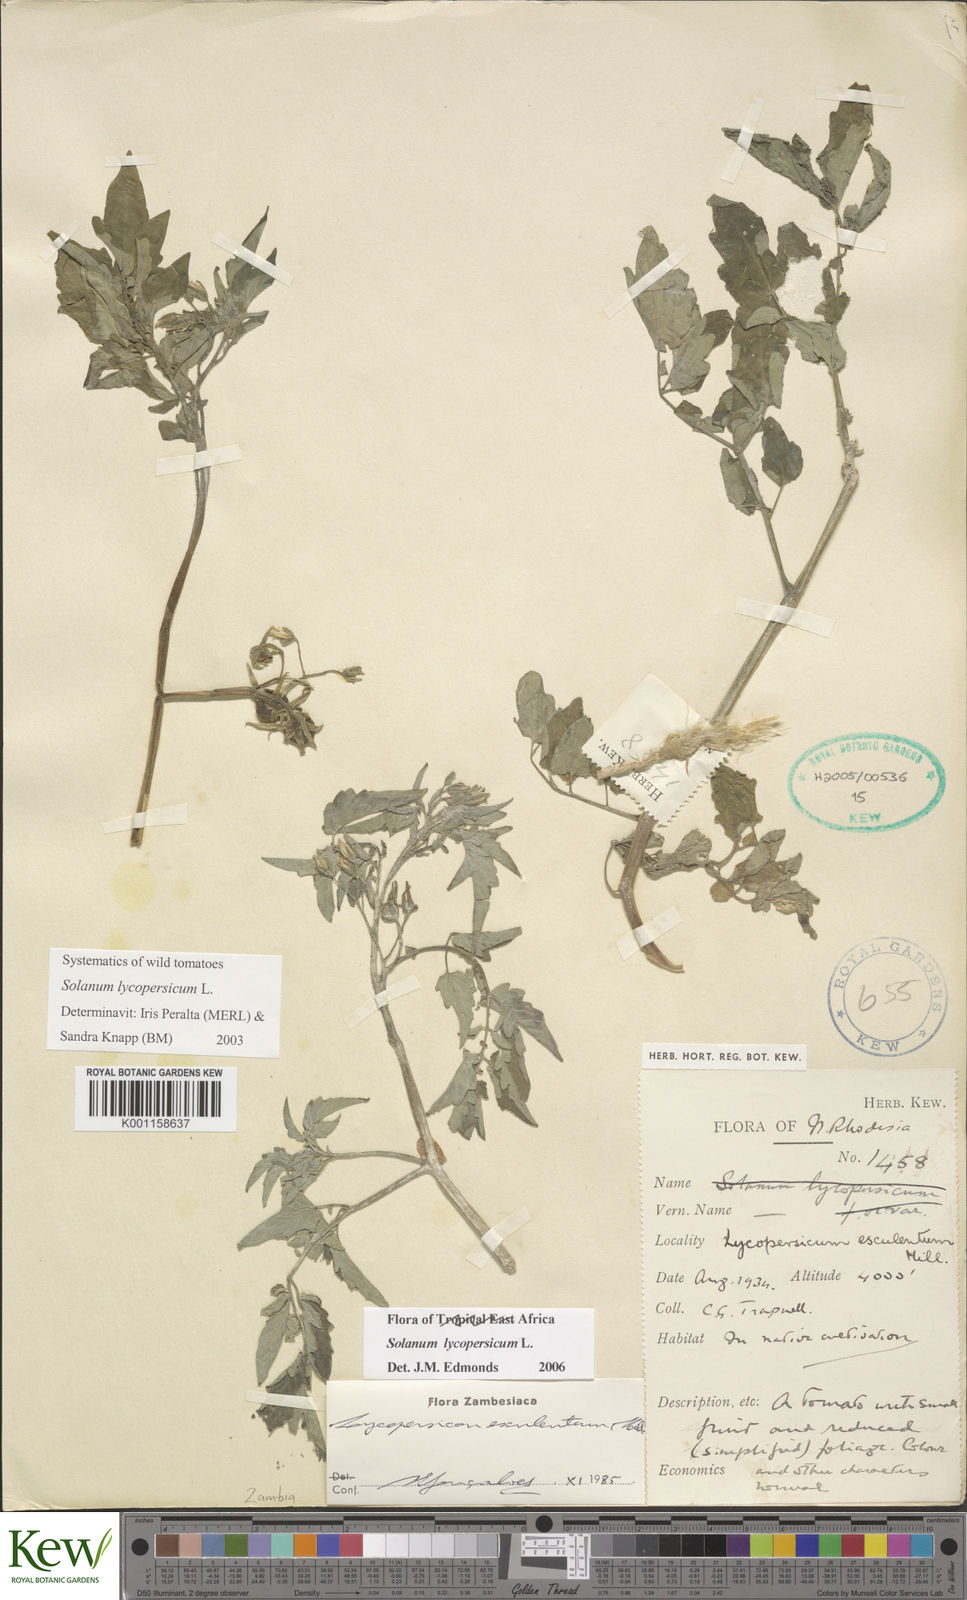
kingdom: Plantae
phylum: Tracheophyta
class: Magnoliopsida
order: Solanales
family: Solanaceae
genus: Solanum
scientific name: Solanum lycopersicum
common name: Garden tomato
